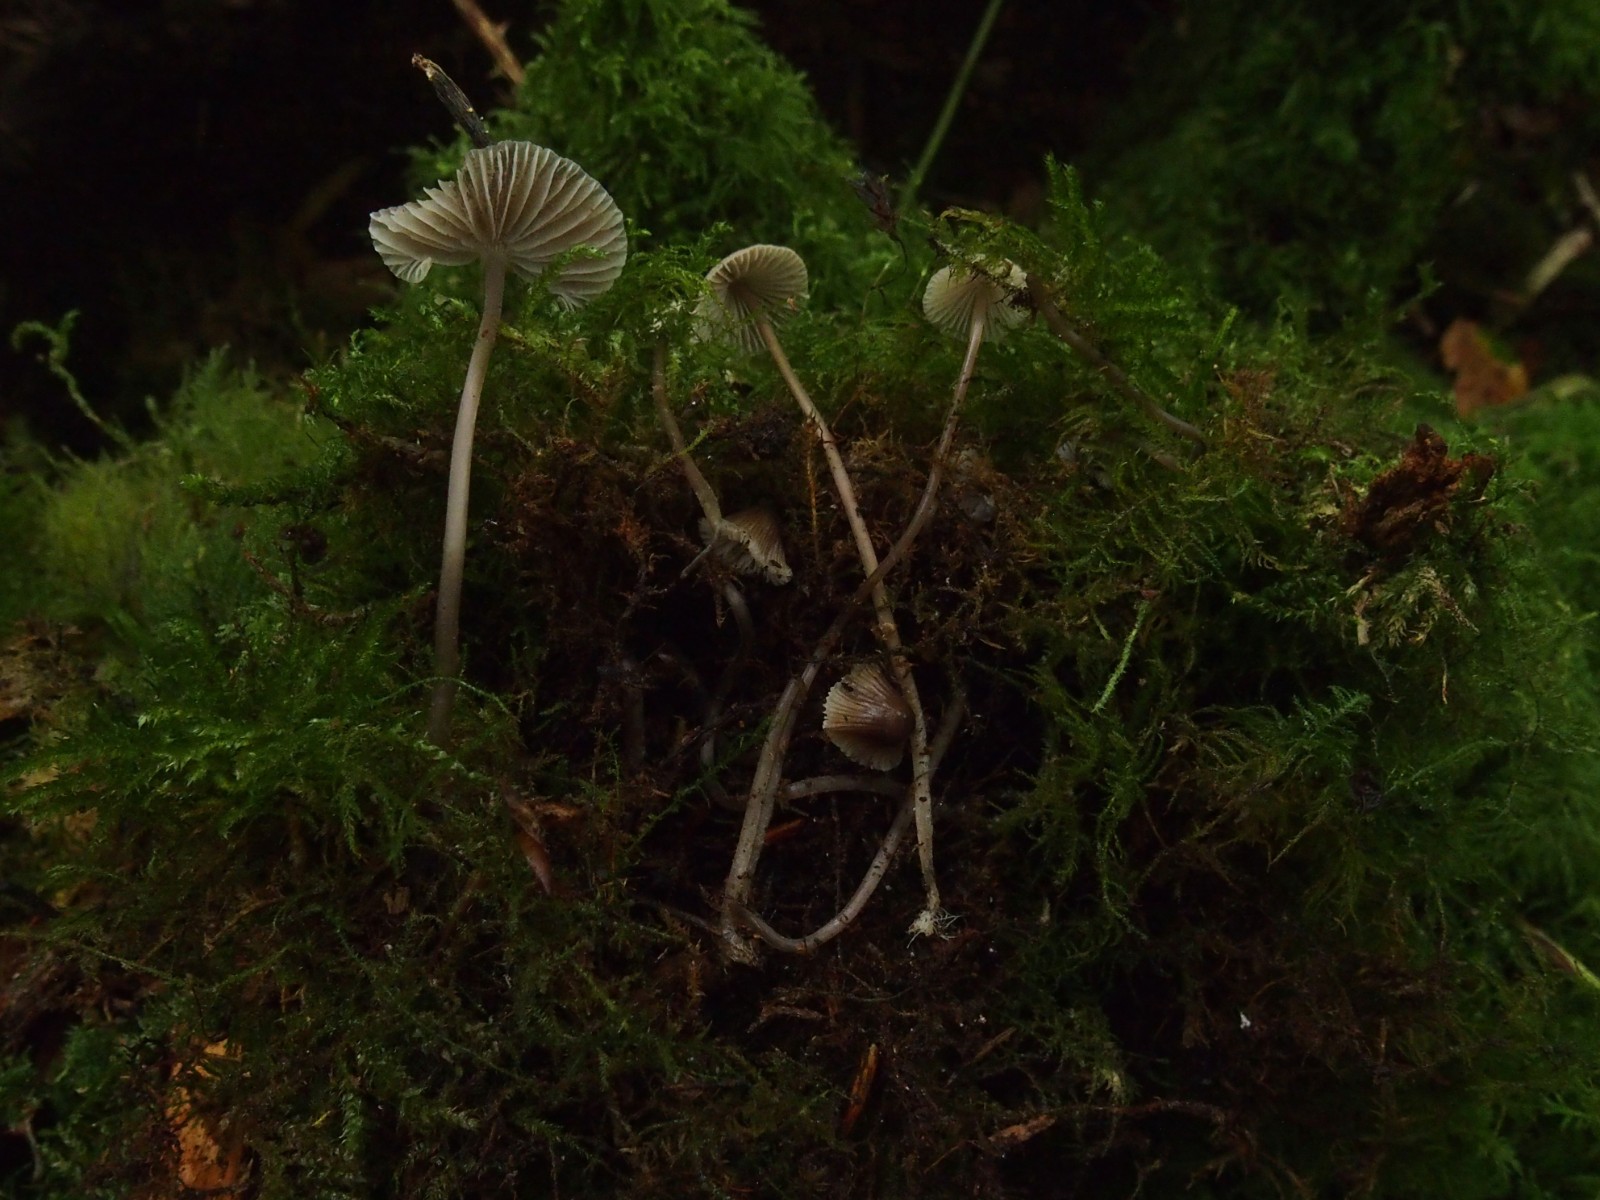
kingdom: Fungi
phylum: Basidiomycota
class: Agaricomycetes
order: Agaricales
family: Mycenaceae
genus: Mycena
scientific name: Mycena
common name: huesvamp
